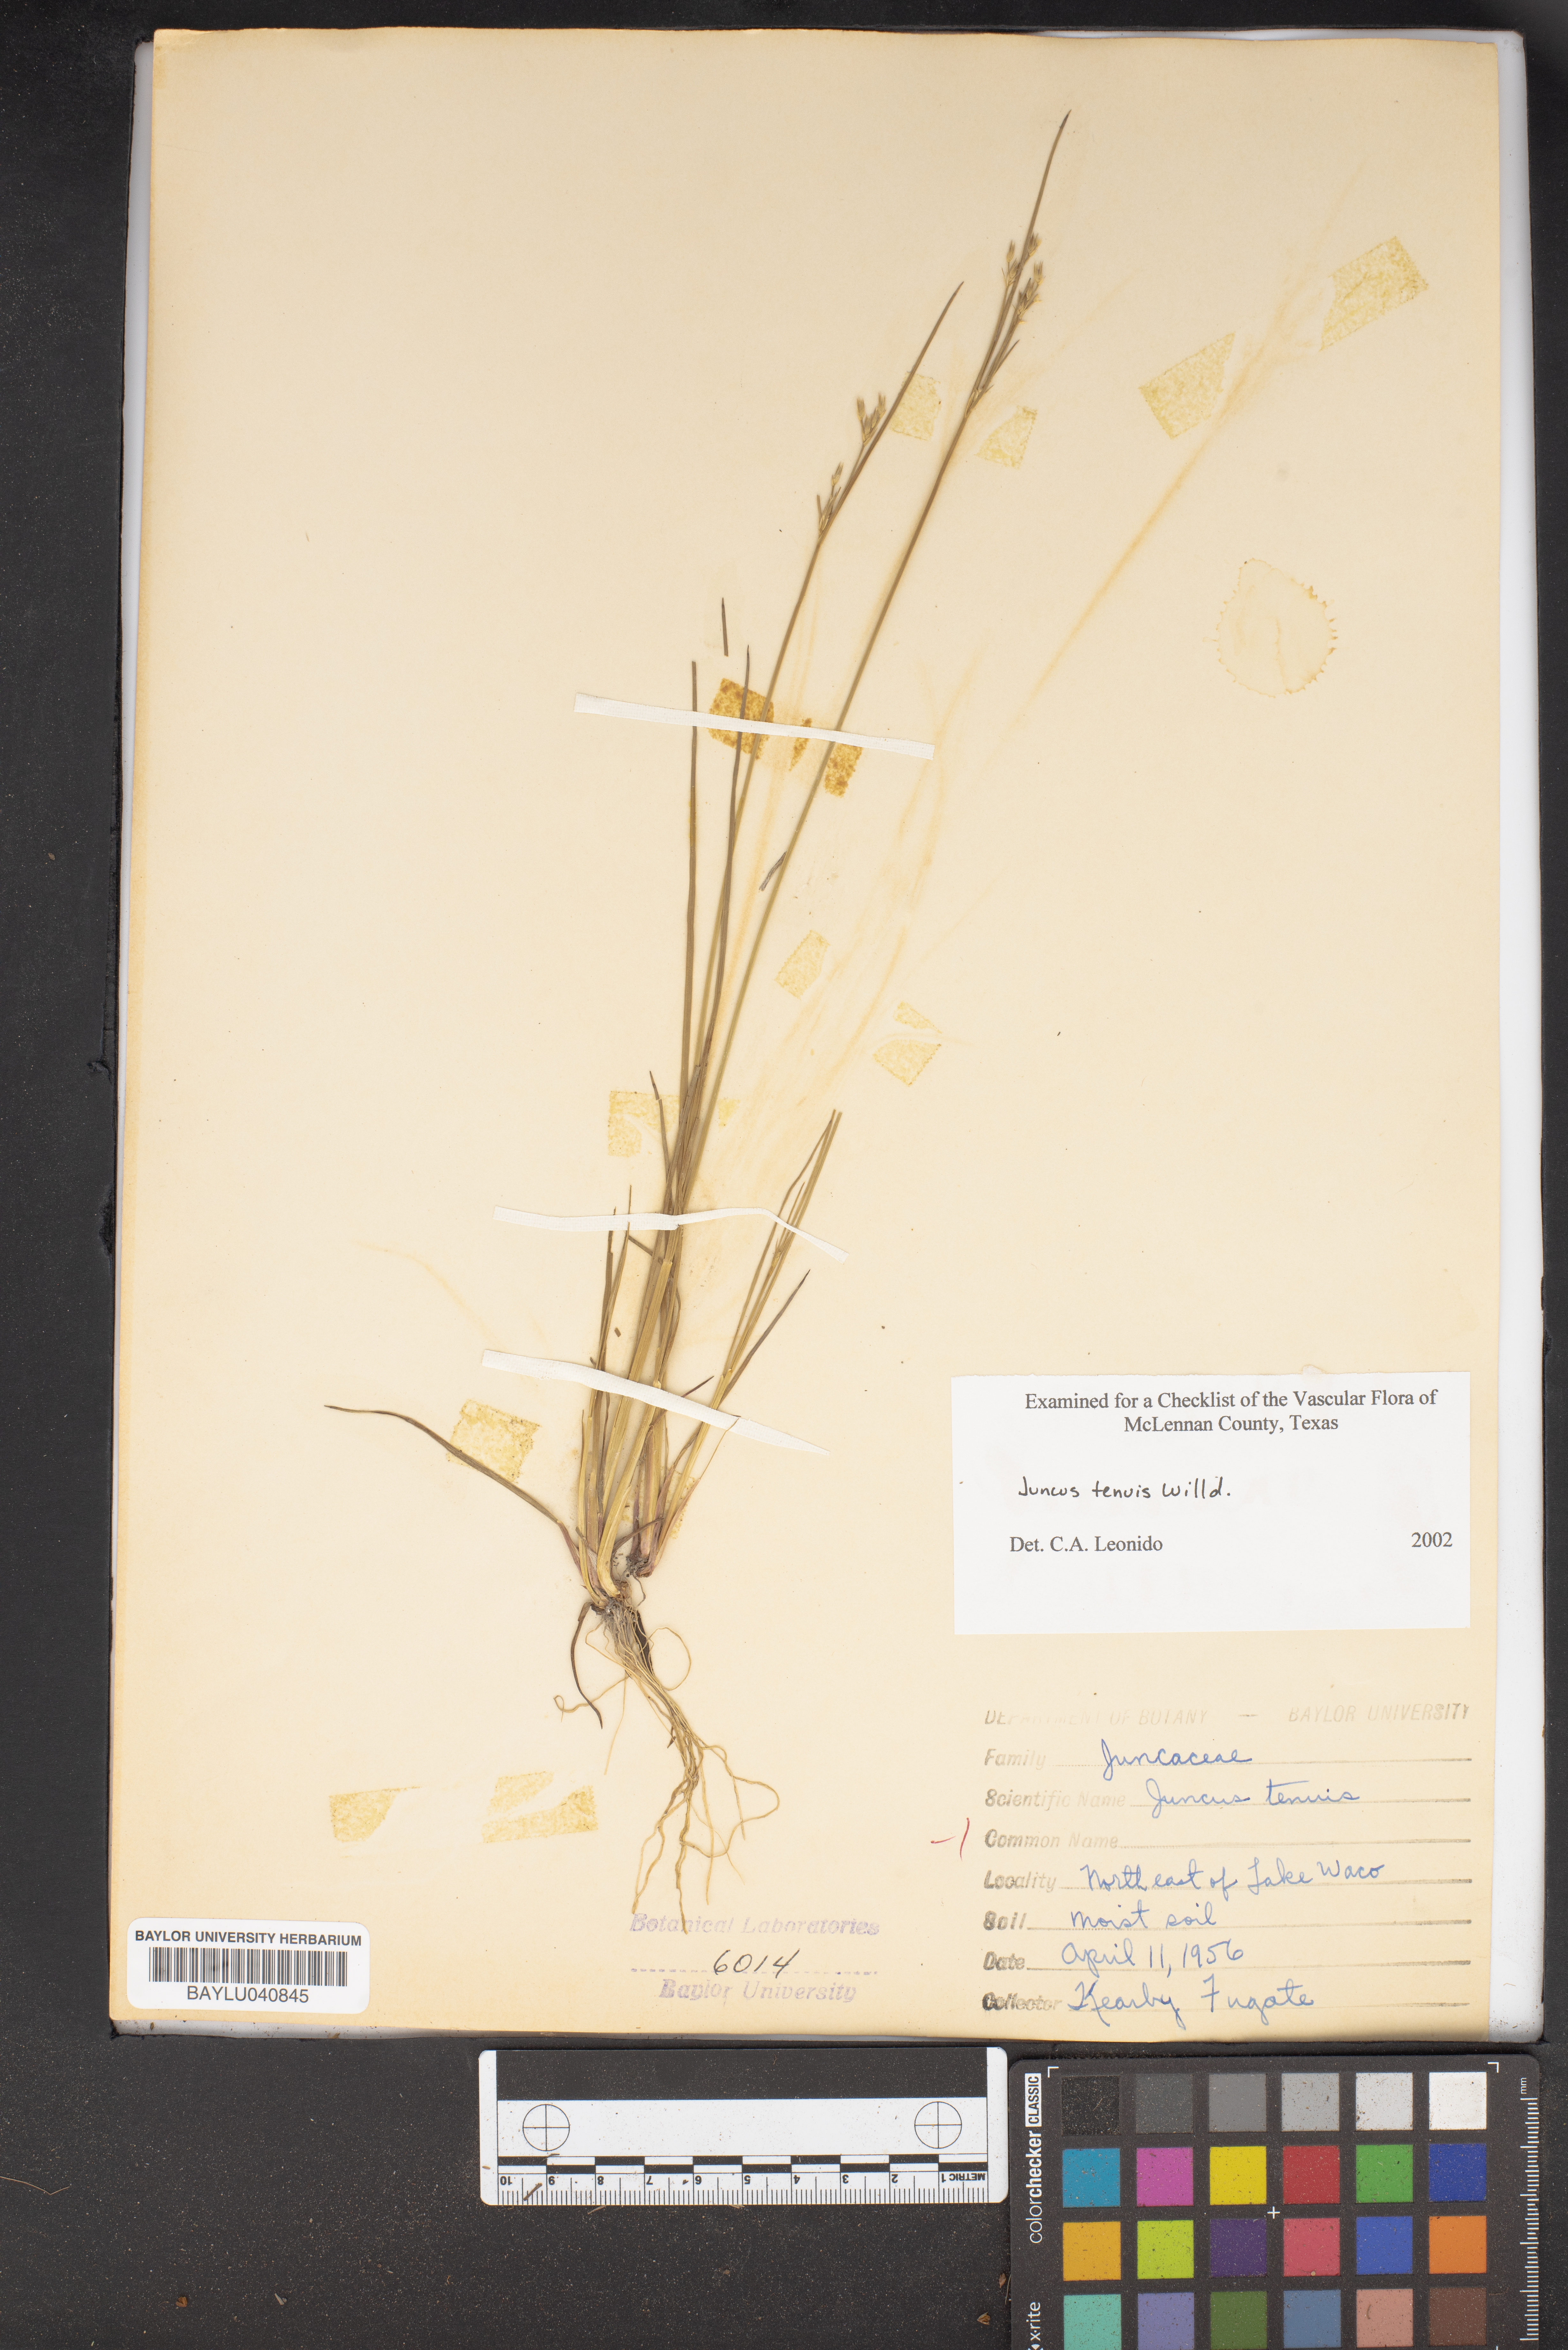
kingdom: Plantae
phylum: Tracheophyta
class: Liliopsida
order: Poales
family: Juncaceae
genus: Juncus
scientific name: Juncus tenuis
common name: Slender rush
